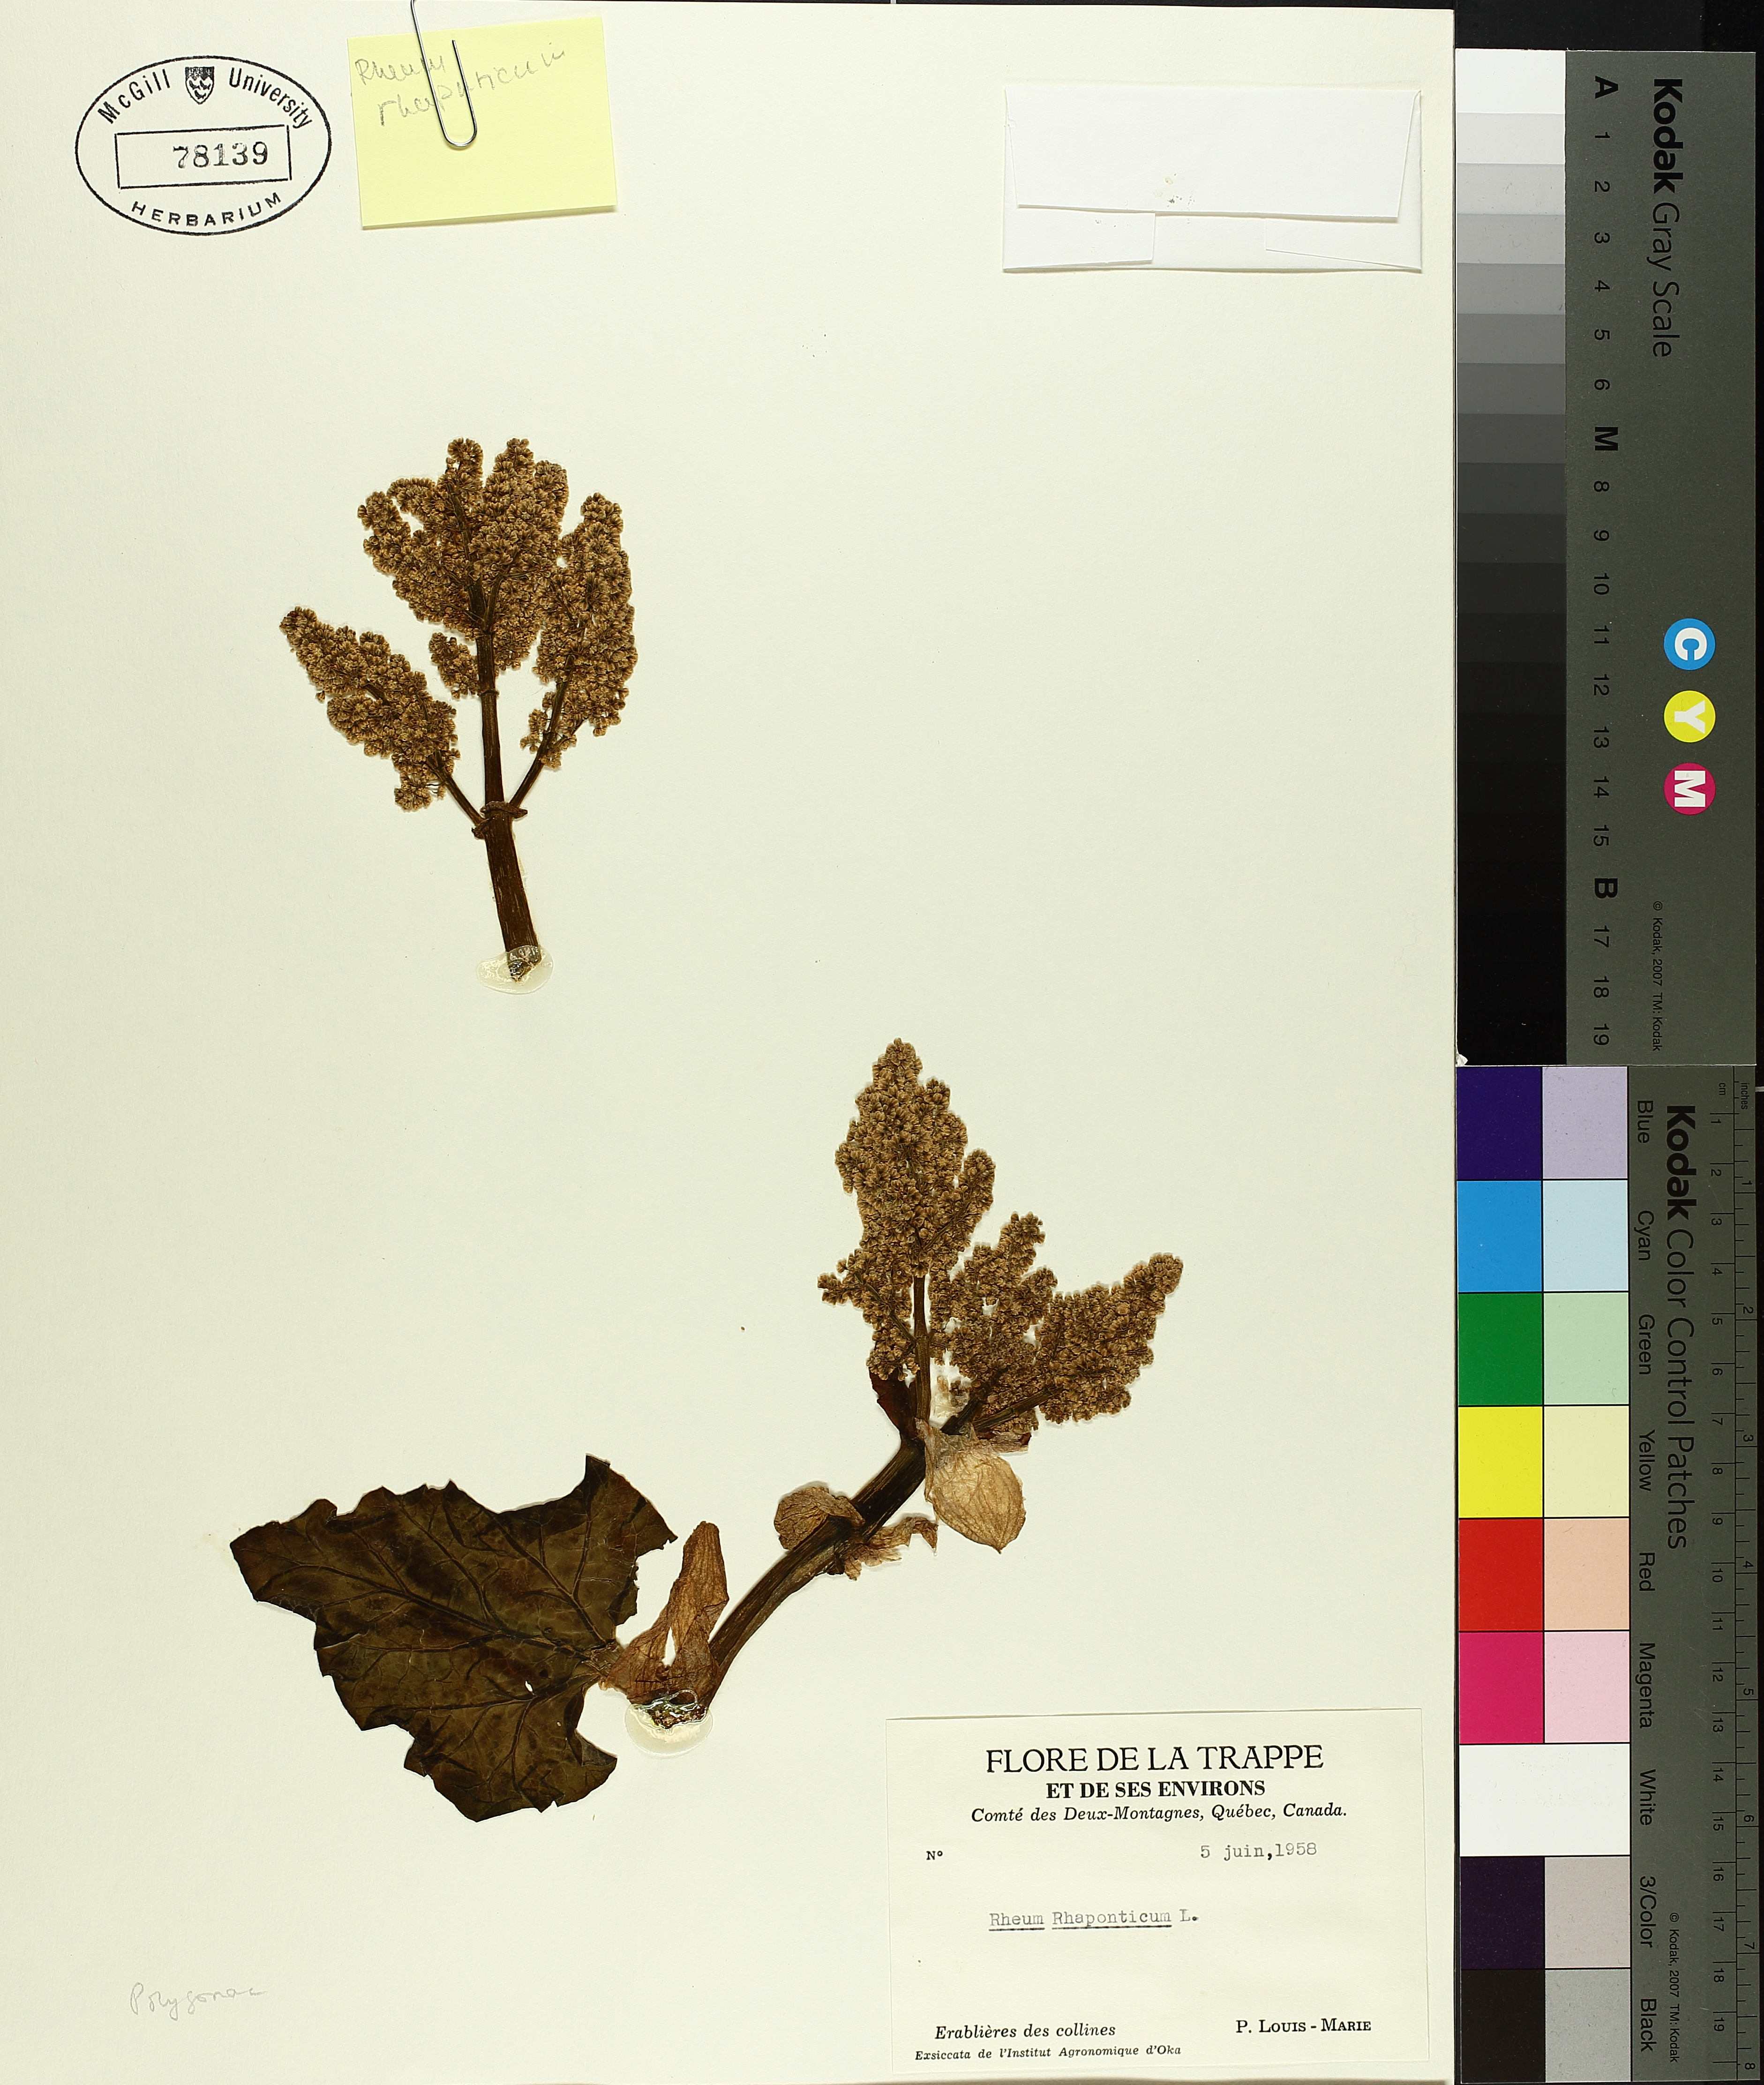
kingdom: Plantae
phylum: Tracheophyta
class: Magnoliopsida
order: Caryophyllales
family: Polygonaceae
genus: Rheum
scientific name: Rheum rhaponticum
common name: Rhubarb
